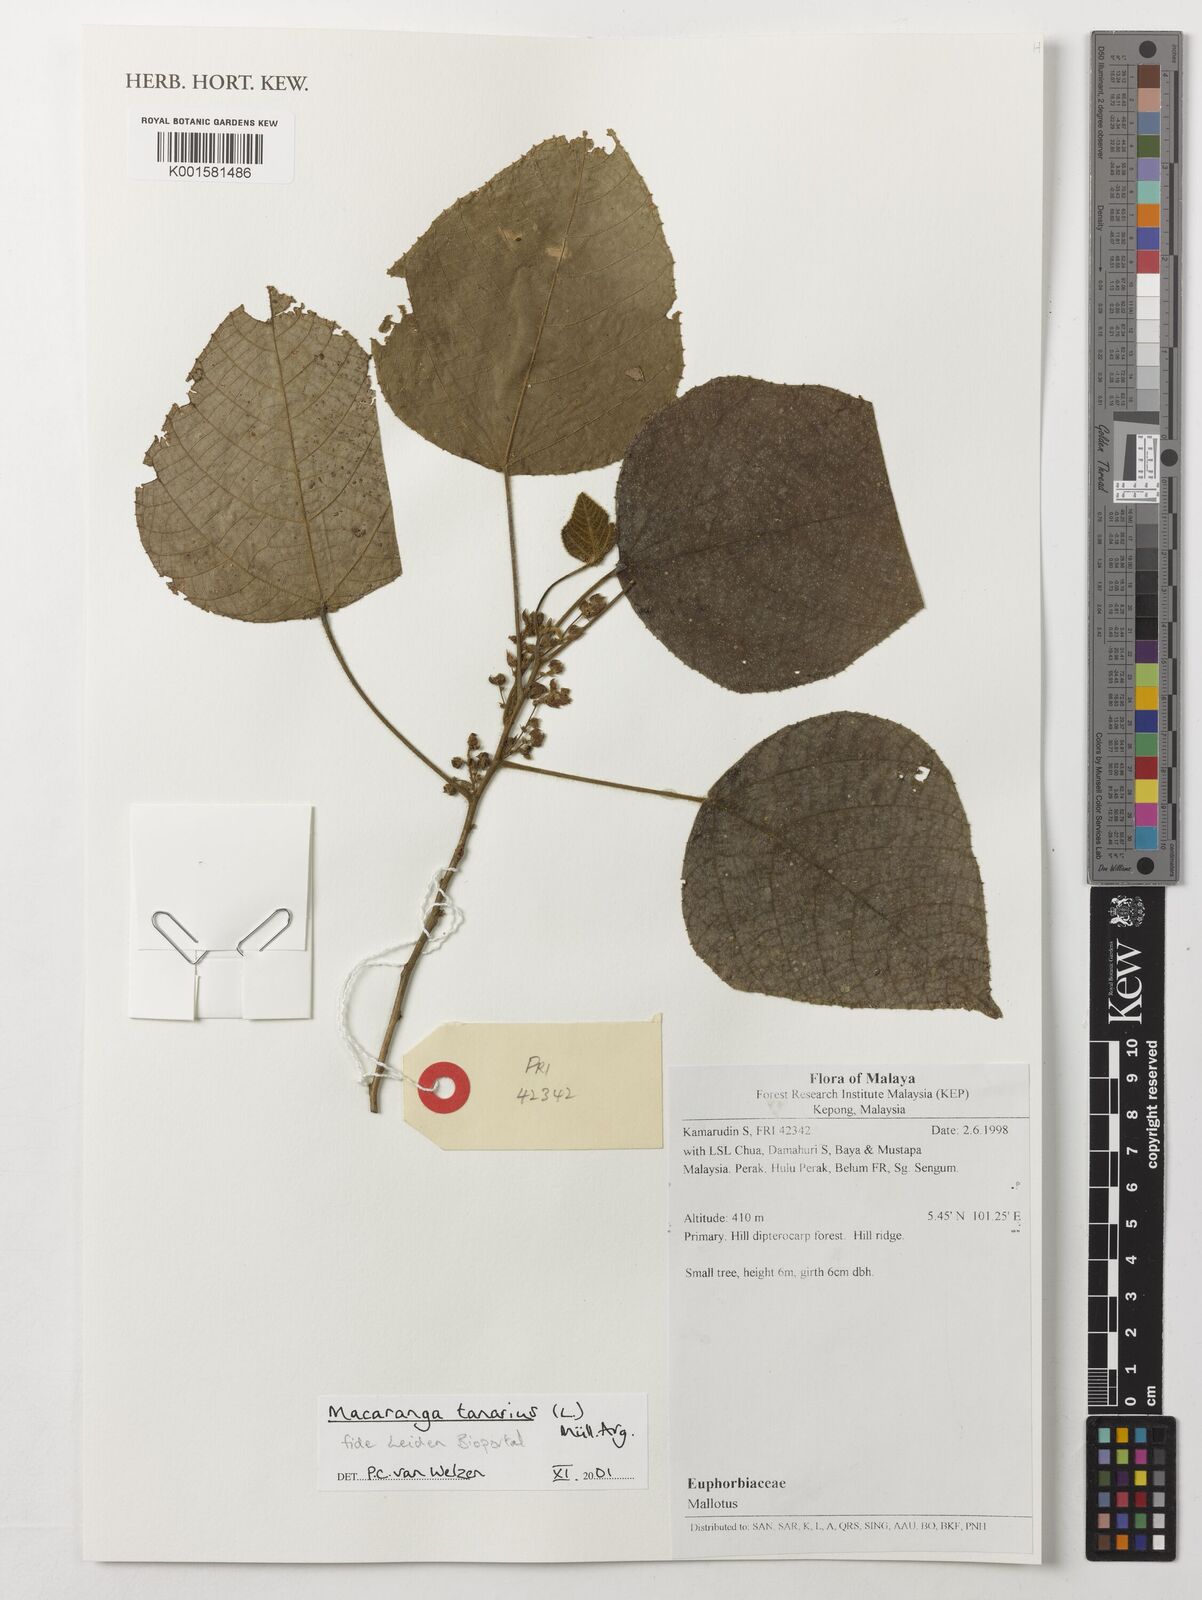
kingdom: Plantae
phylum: Tracheophyta
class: Magnoliopsida
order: Malpighiales
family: Euphorbiaceae
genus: Macaranga
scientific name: Macaranga tanarius
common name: Parasol leaf tree
